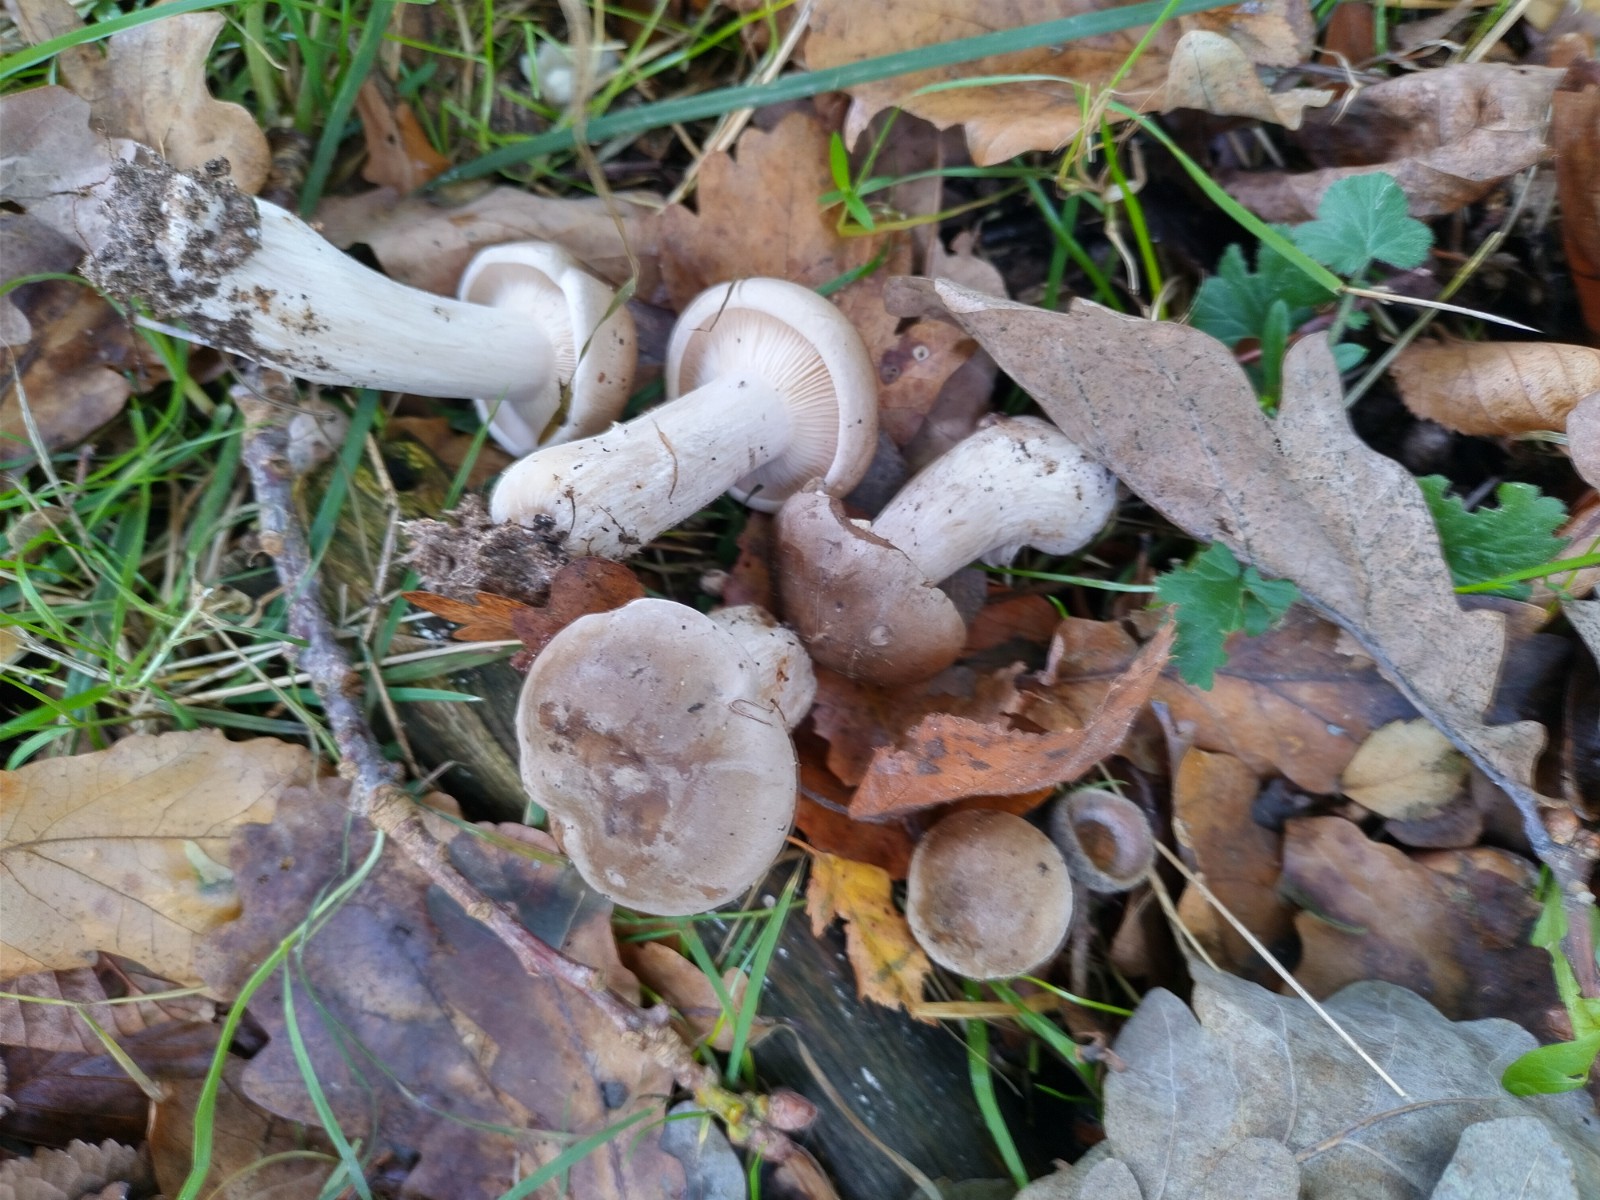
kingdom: Fungi
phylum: Basidiomycota
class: Agaricomycetes
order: Agaricales
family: Tricholomataceae
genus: Clitocybe
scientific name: Clitocybe nebularis
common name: tåge-tragthat
